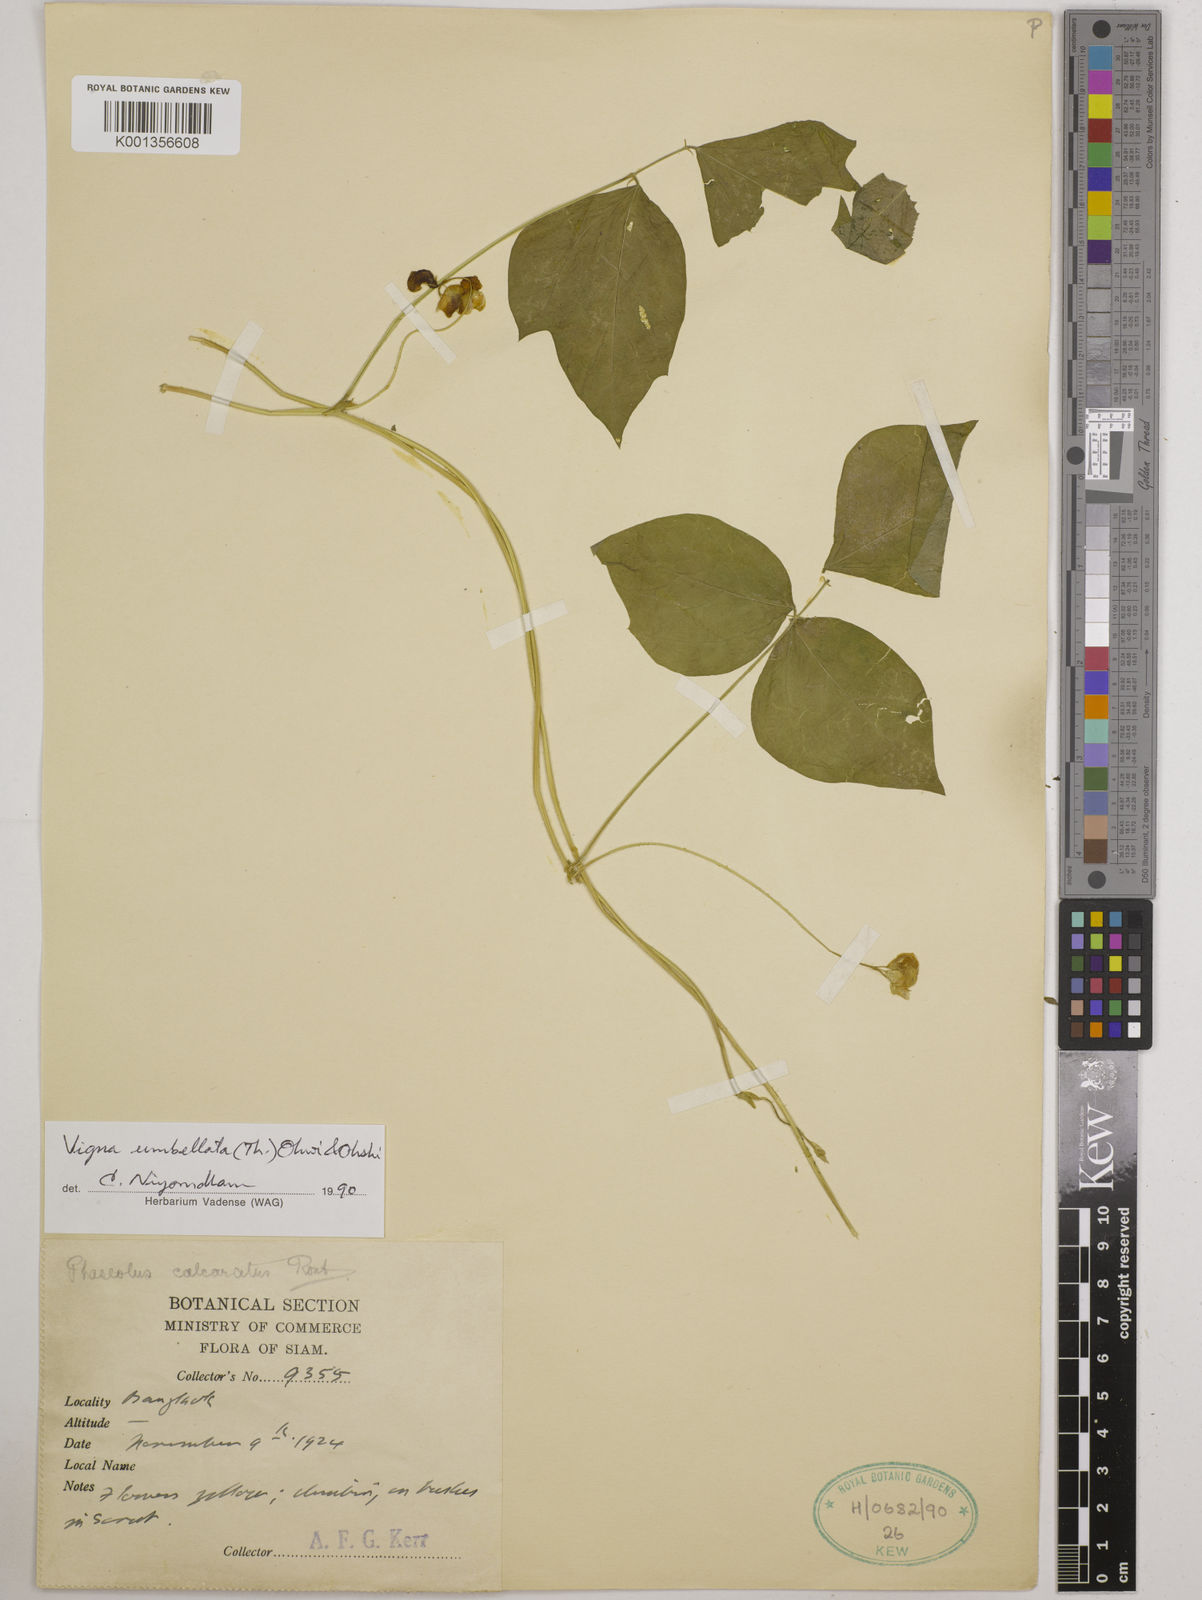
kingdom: Plantae
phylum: Tracheophyta
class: Magnoliopsida
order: Fabales
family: Fabaceae
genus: Vigna
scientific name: Vigna umbellata
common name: Oriental-bean
